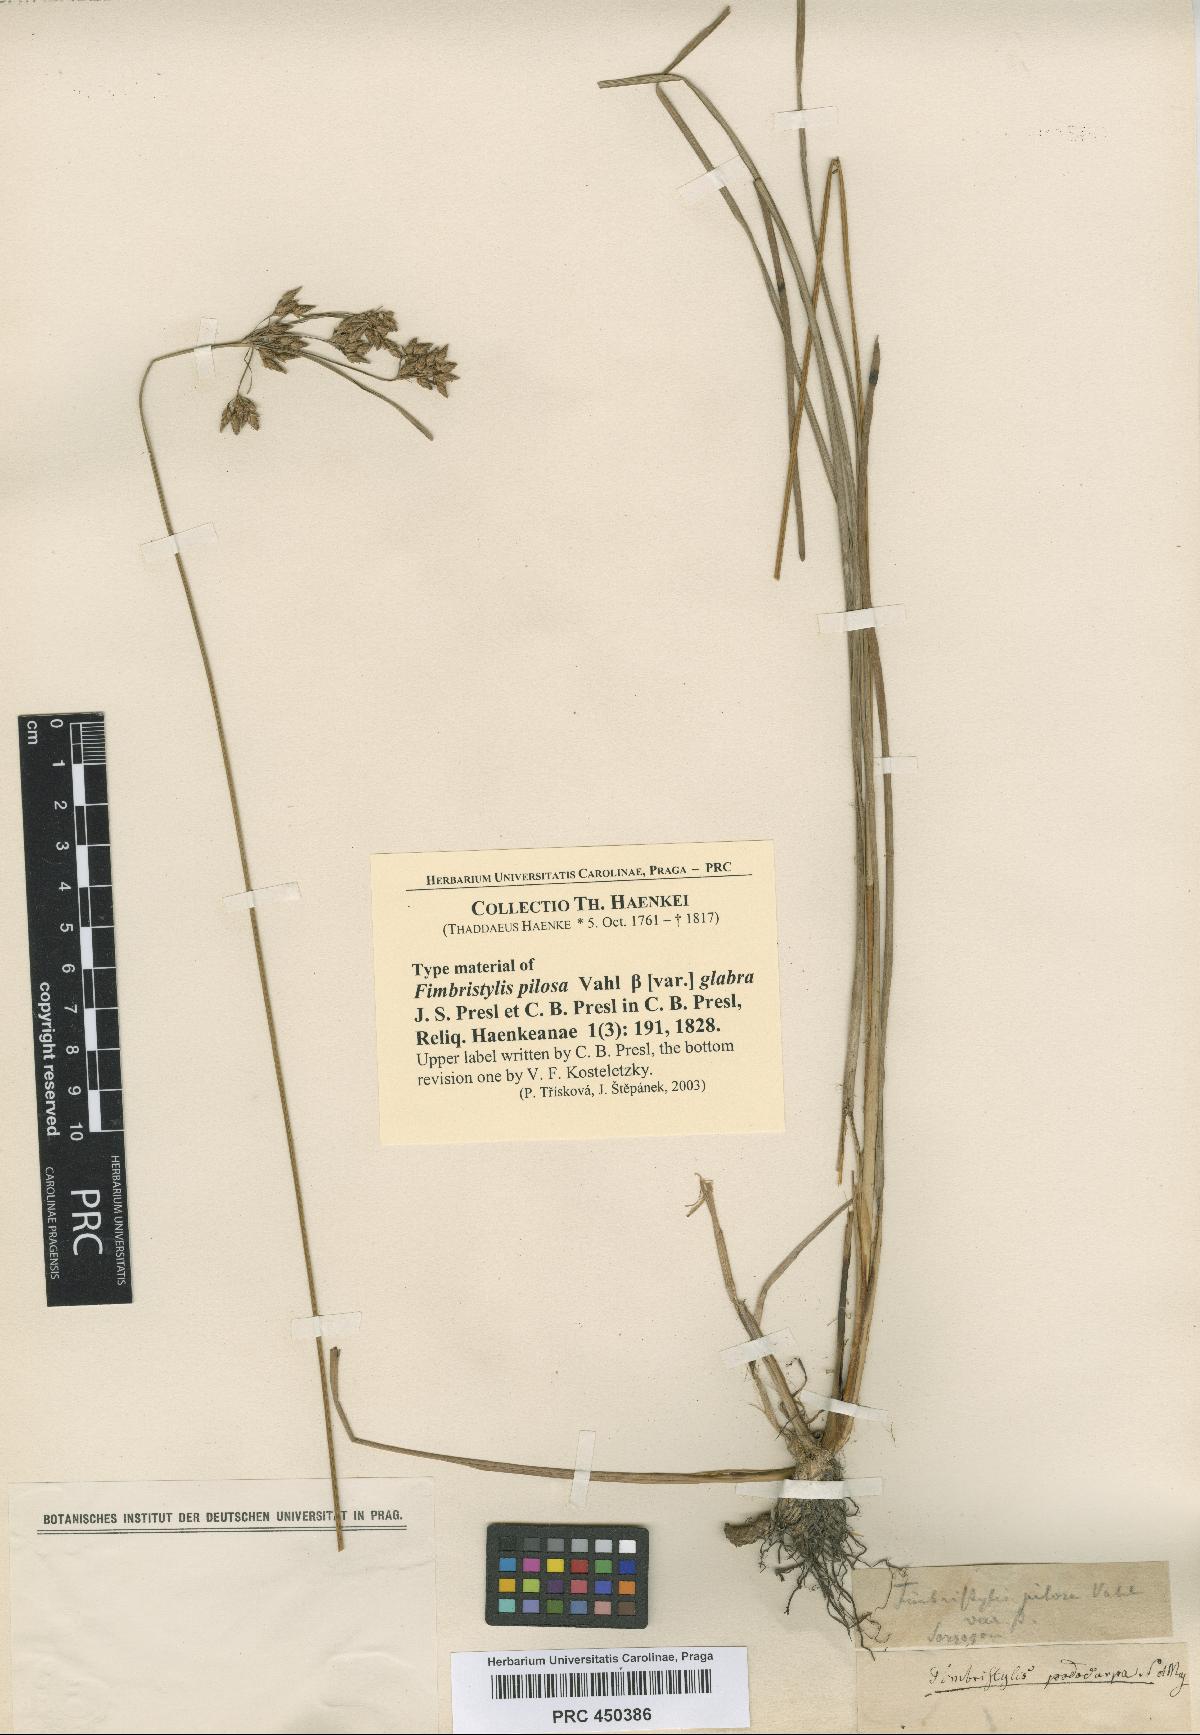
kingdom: Plantae
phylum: Tracheophyta
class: Liliopsida
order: Poales
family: Cyperaceae
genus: Fimbristylis
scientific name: Fimbristylis
